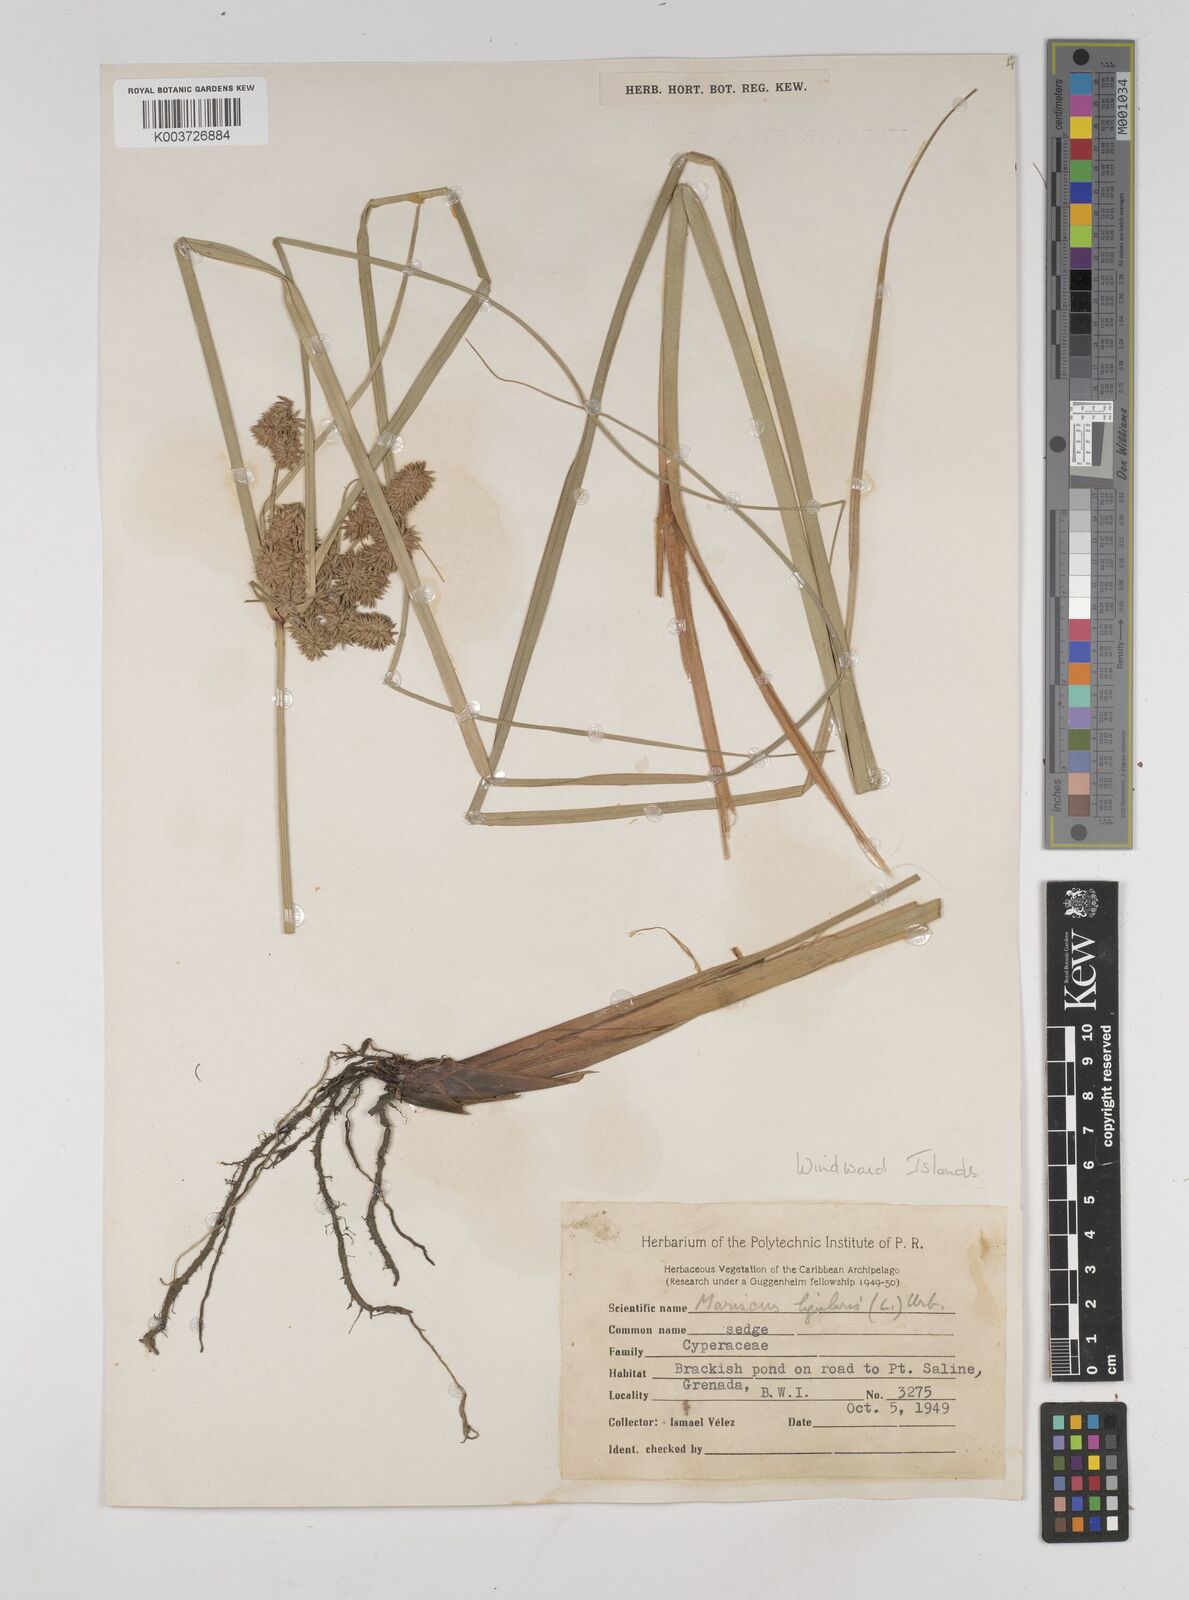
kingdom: Plantae
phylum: Tracheophyta
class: Liliopsida
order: Poales
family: Cyperaceae
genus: Cyperus
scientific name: Cyperus ligularis
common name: Swamp flat sedge
